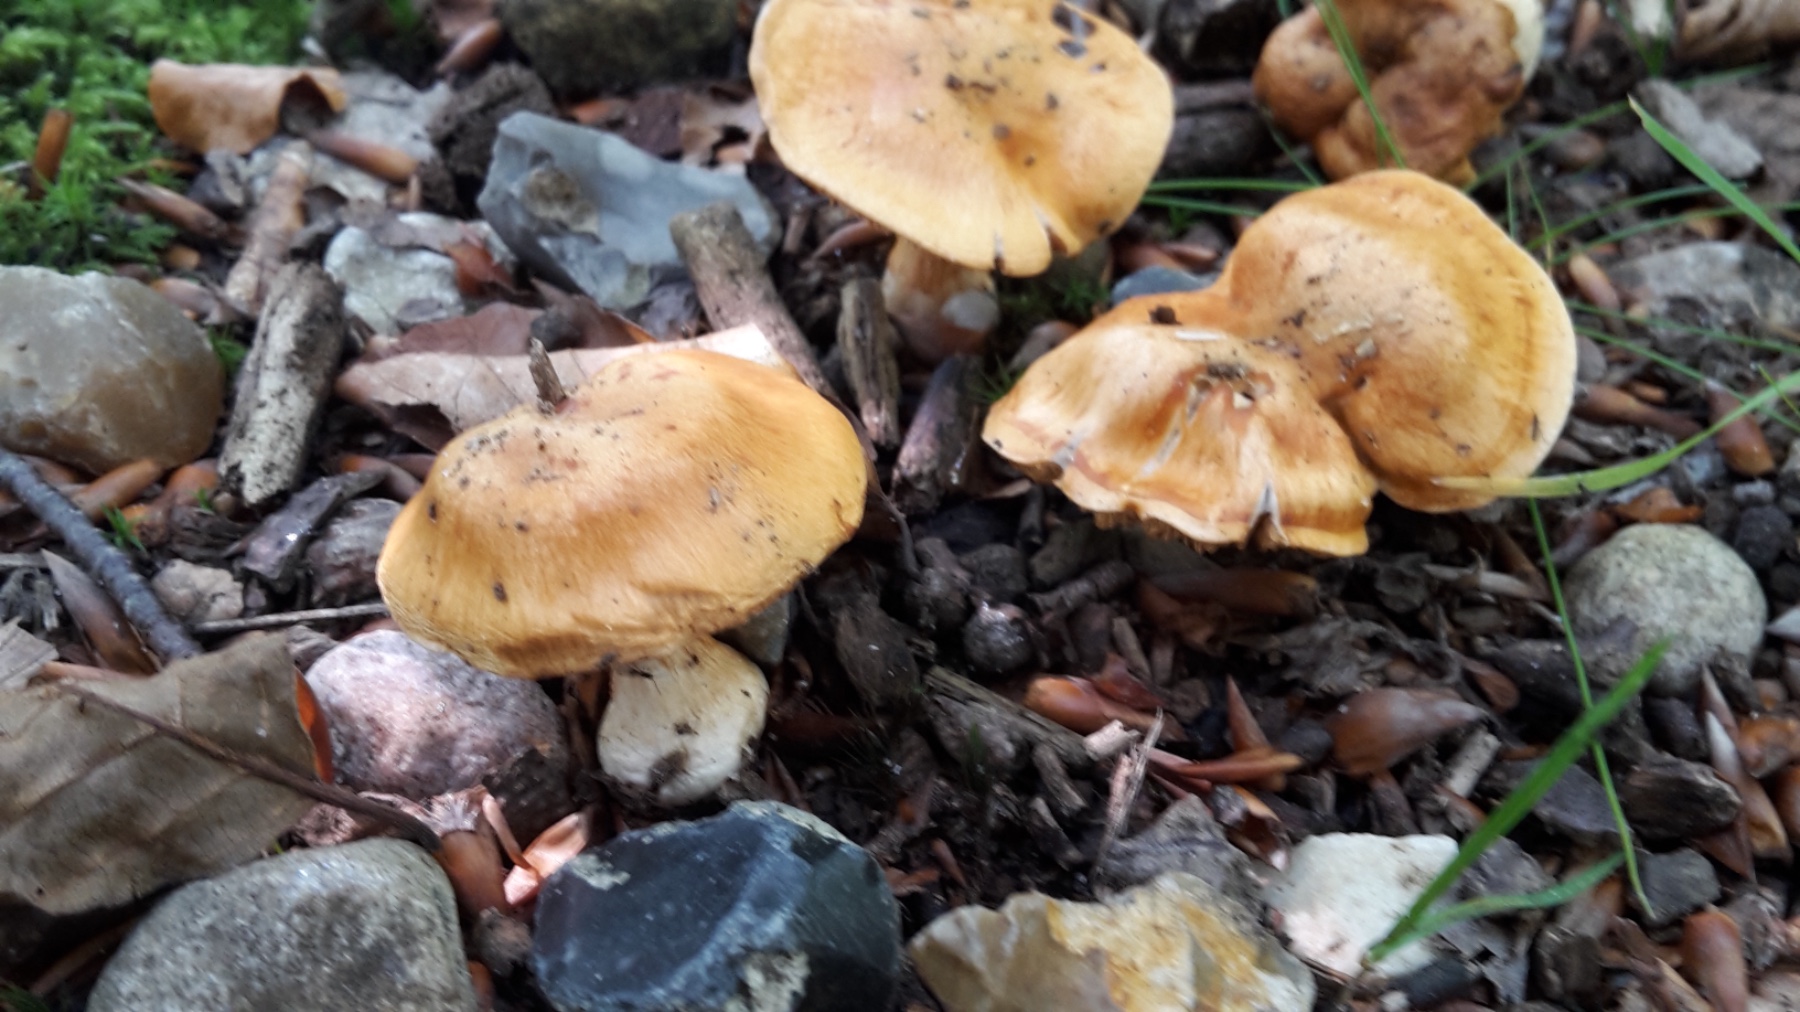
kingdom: Fungi
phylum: Basidiomycota
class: Agaricomycetes
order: Agaricales
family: Cortinariaceae
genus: Cortinarius
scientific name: Cortinarius
